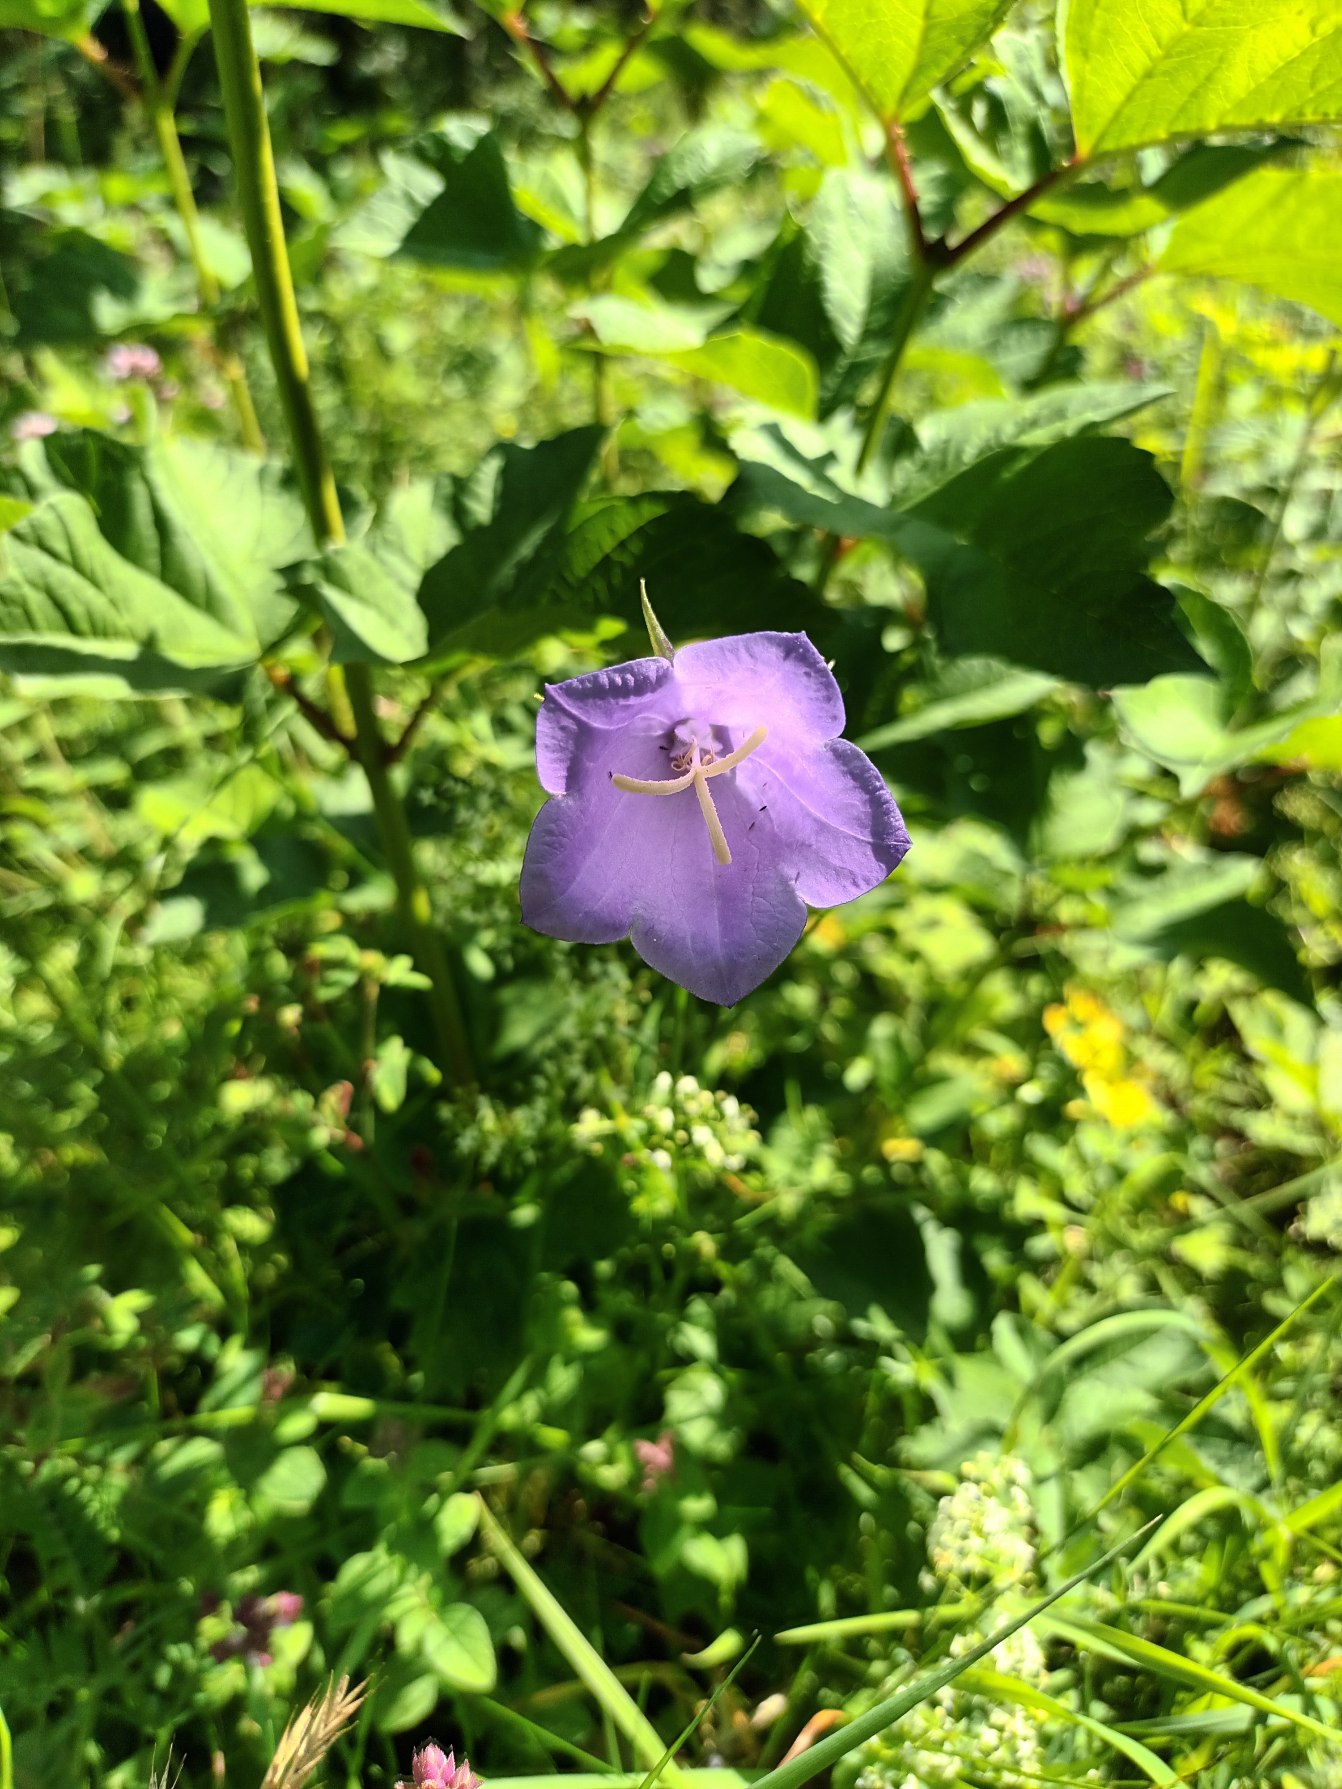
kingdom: Plantae
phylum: Tracheophyta
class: Magnoliopsida
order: Asterales
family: Campanulaceae
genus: Campanula
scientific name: Campanula persicifolia
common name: Smalbladet klokke
